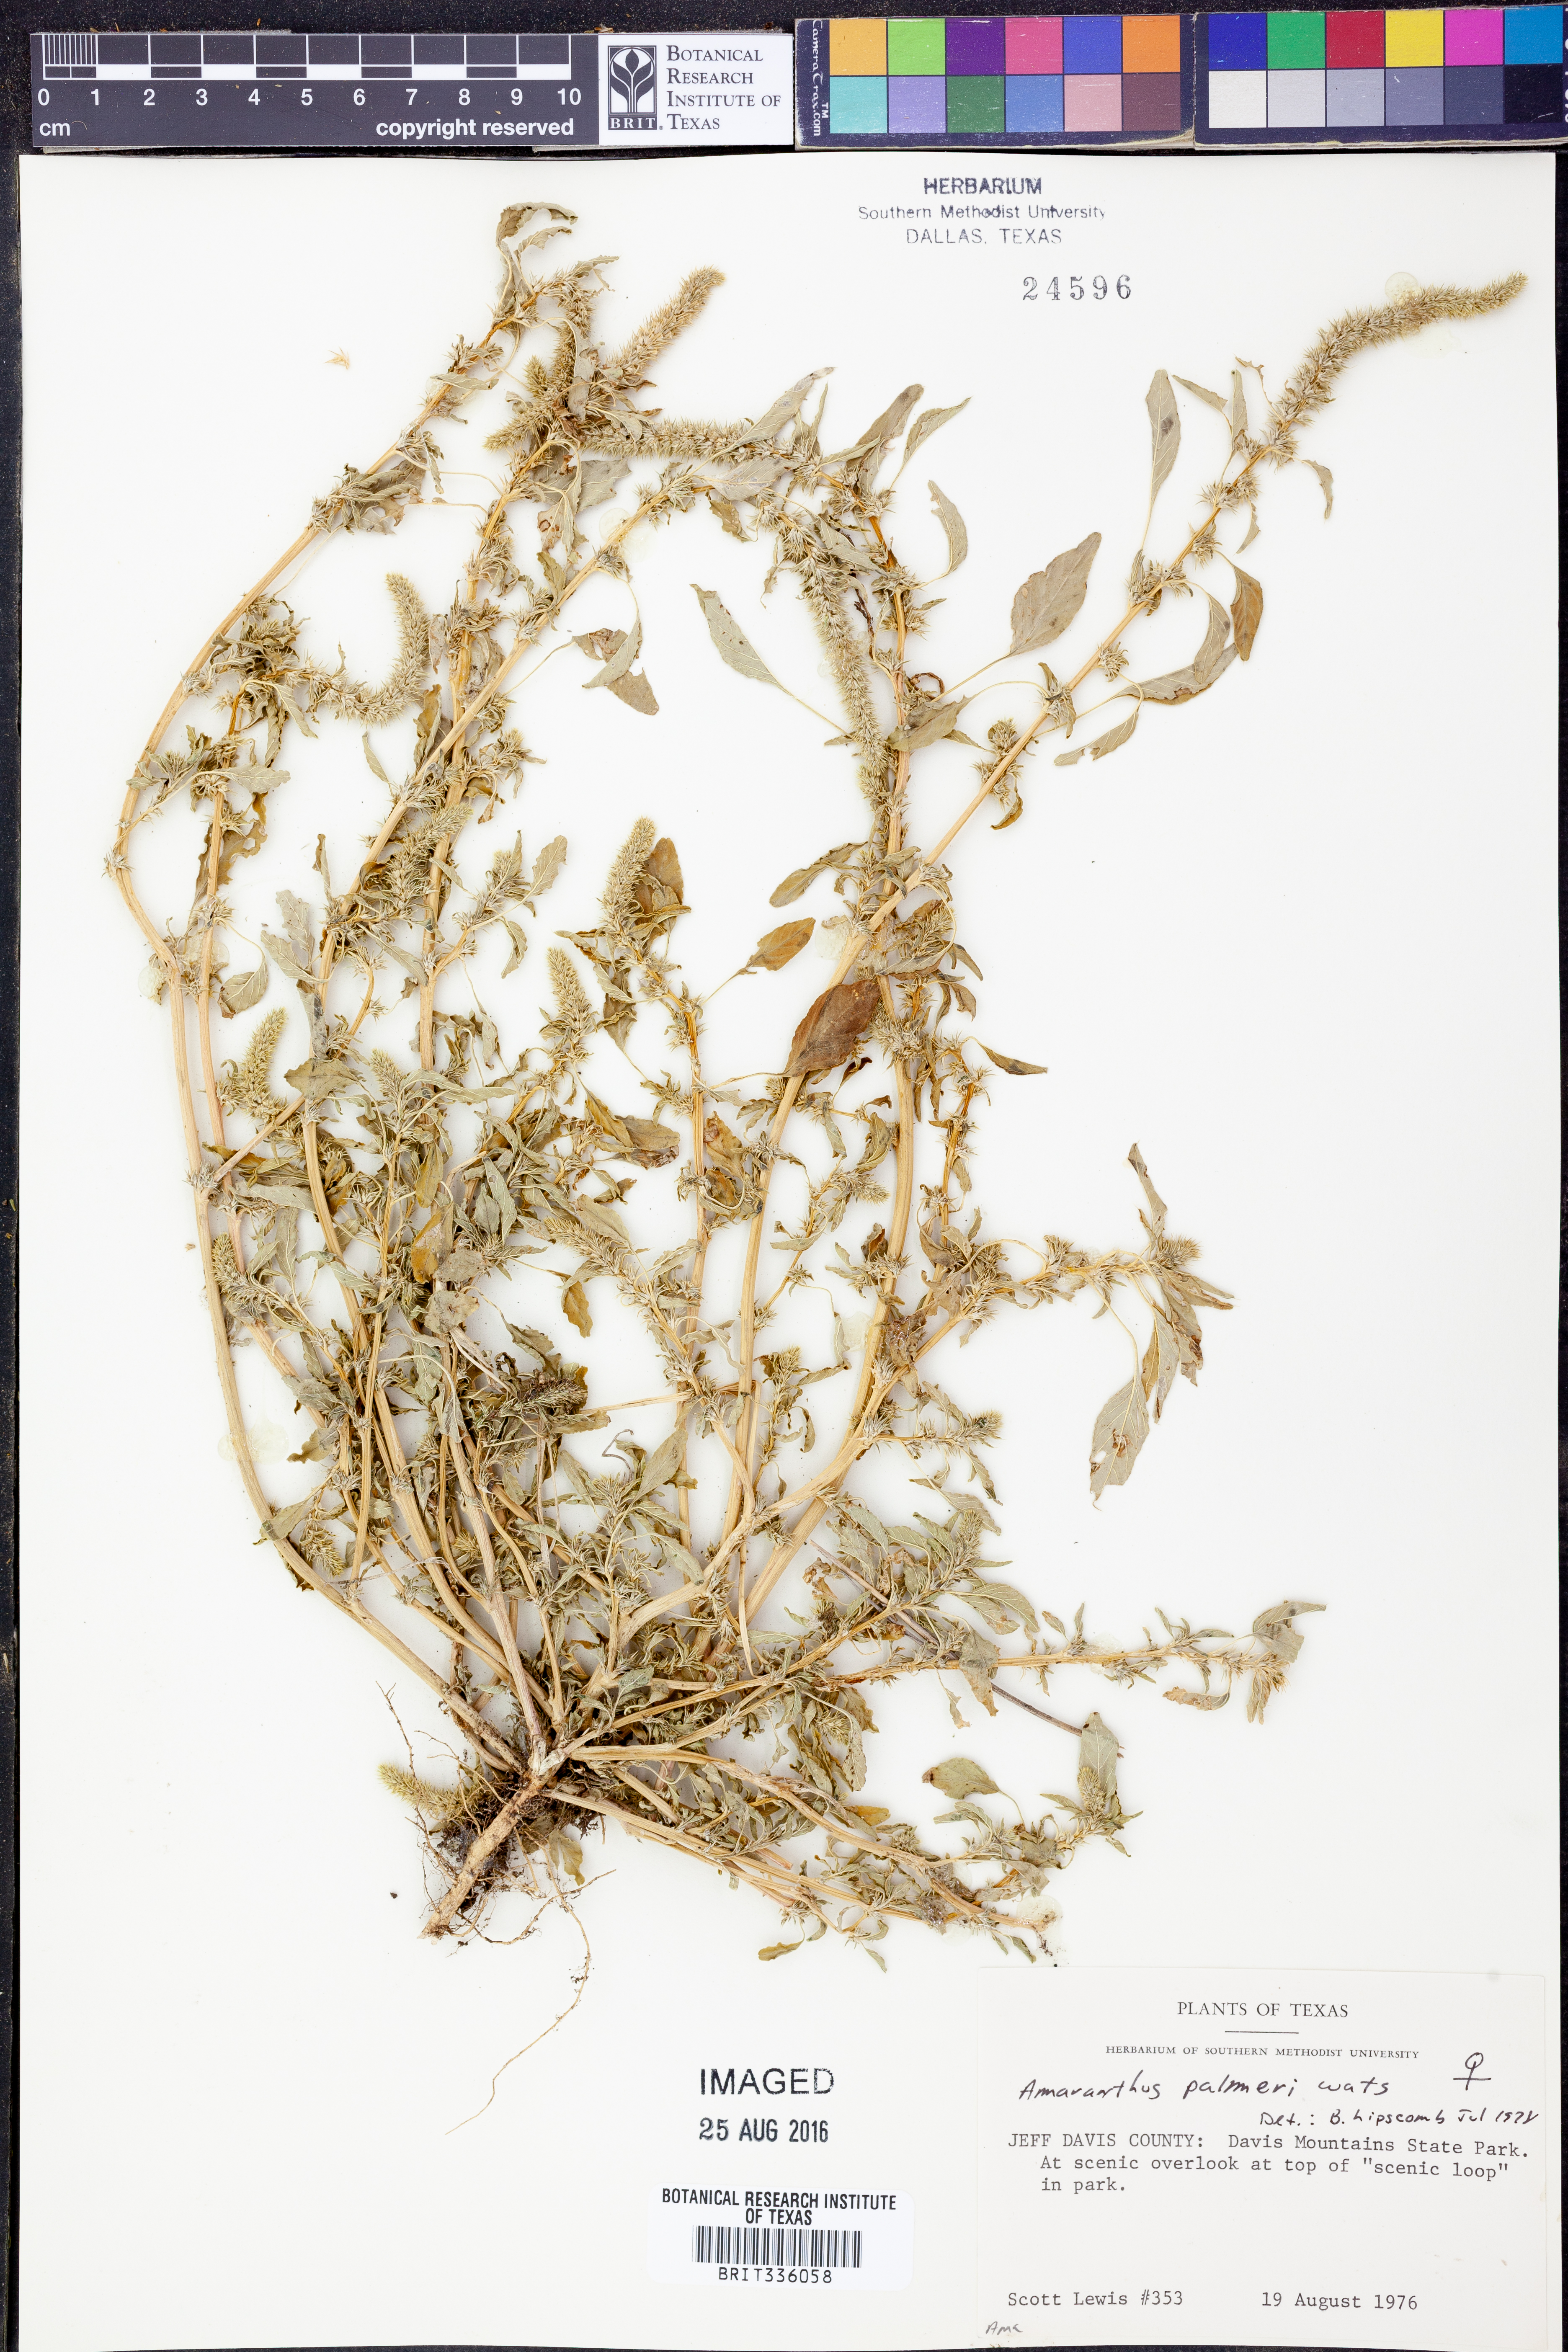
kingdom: Plantae
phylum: Tracheophyta
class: Magnoliopsida
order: Caryophyllales
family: Amaranthaceae
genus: Amaranthus
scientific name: Amaranthus palmeri
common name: Dioecious amaranth
